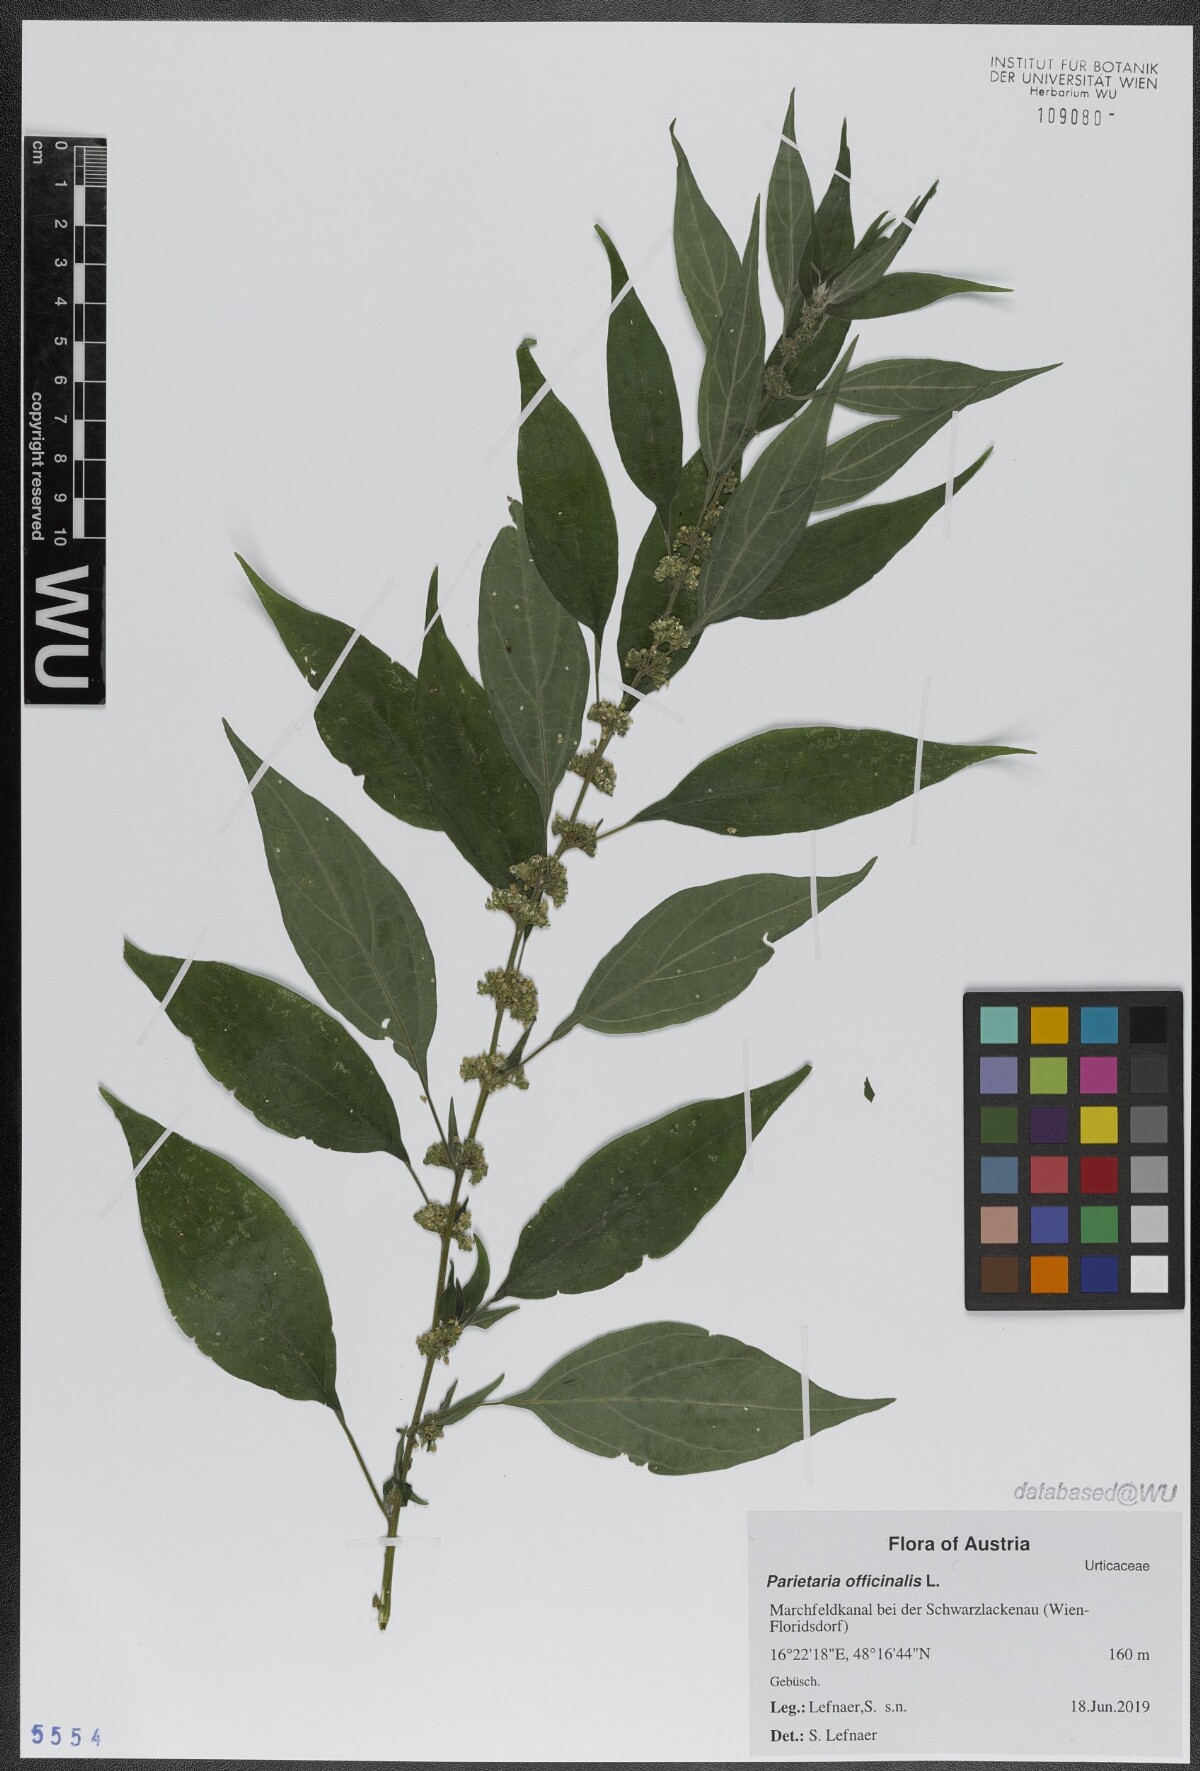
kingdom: Plantae
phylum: Tracheophyta
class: Magnoliopsida
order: Rosales
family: Urticaceae
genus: Parietaria
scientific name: Parietaria officinalis
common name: Eastern pellitory-of-the-wall
